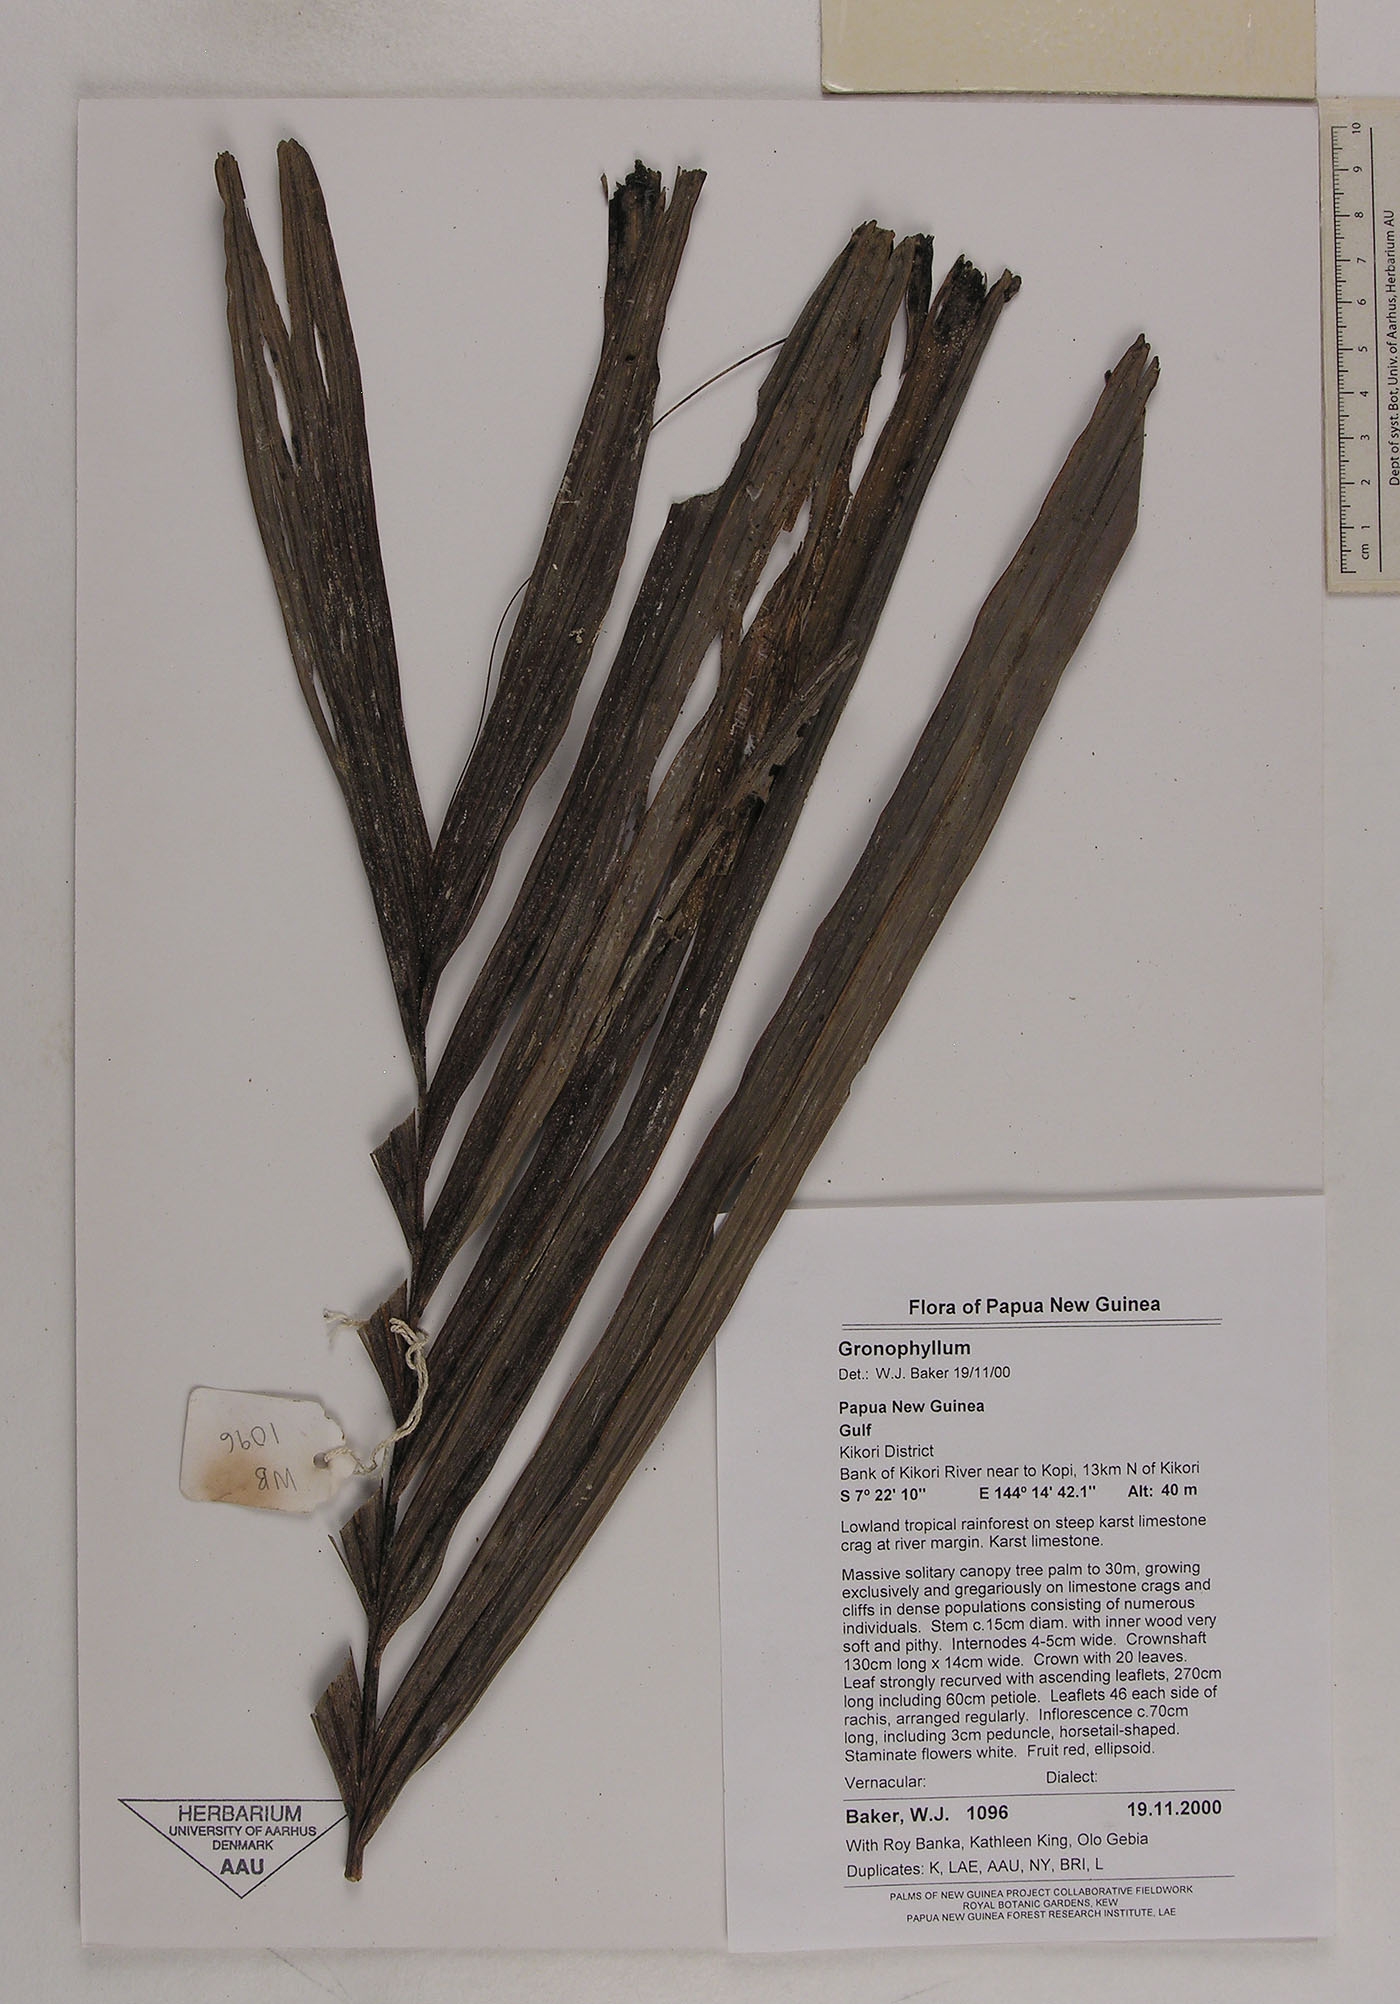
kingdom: Plantae
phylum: Tracheophyta
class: Liliopsida
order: Arecales
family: Arecaceae
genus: Hydriastele
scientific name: Hydriastele
